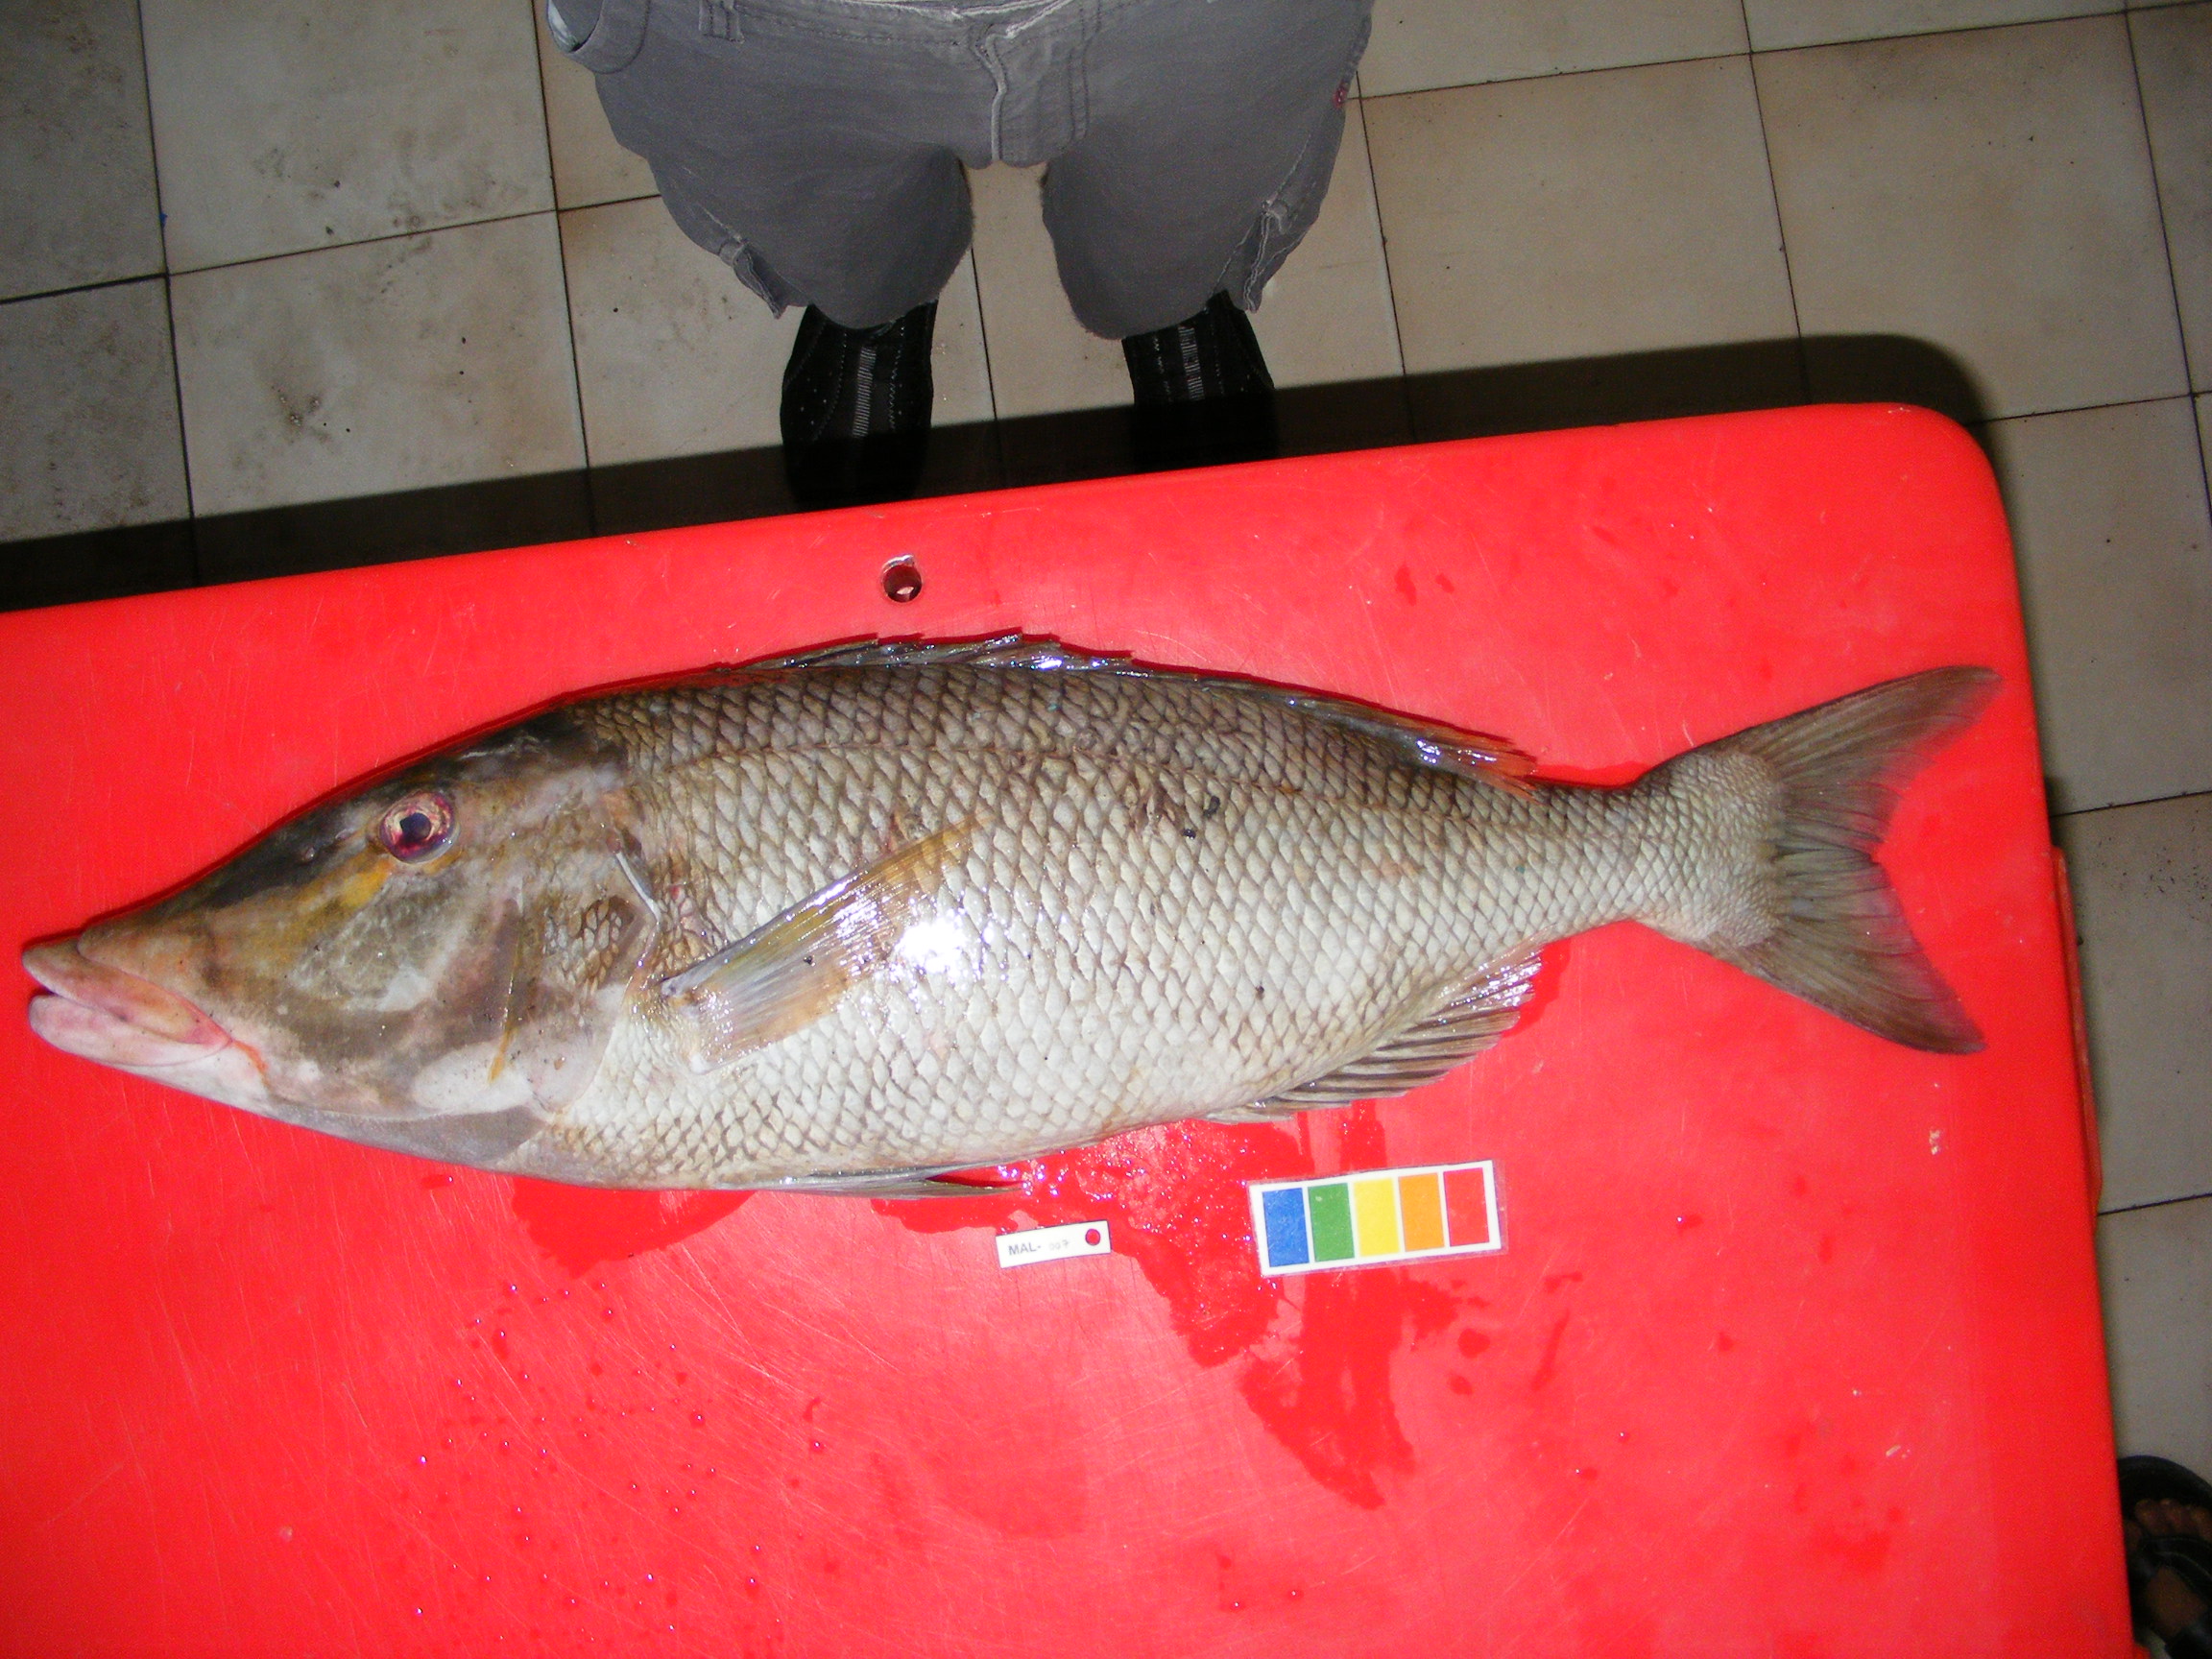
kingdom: Animalia
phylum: Chordata
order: Perciformes
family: Lethrinidae
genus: Lethrinus
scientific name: Lethrinus
